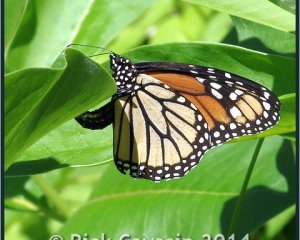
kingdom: Animalia
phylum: Arthropoda
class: Insecta
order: Lepidoptera
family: Nymphalidae
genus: Danaus
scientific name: Danaus plexippus
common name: Monarch
